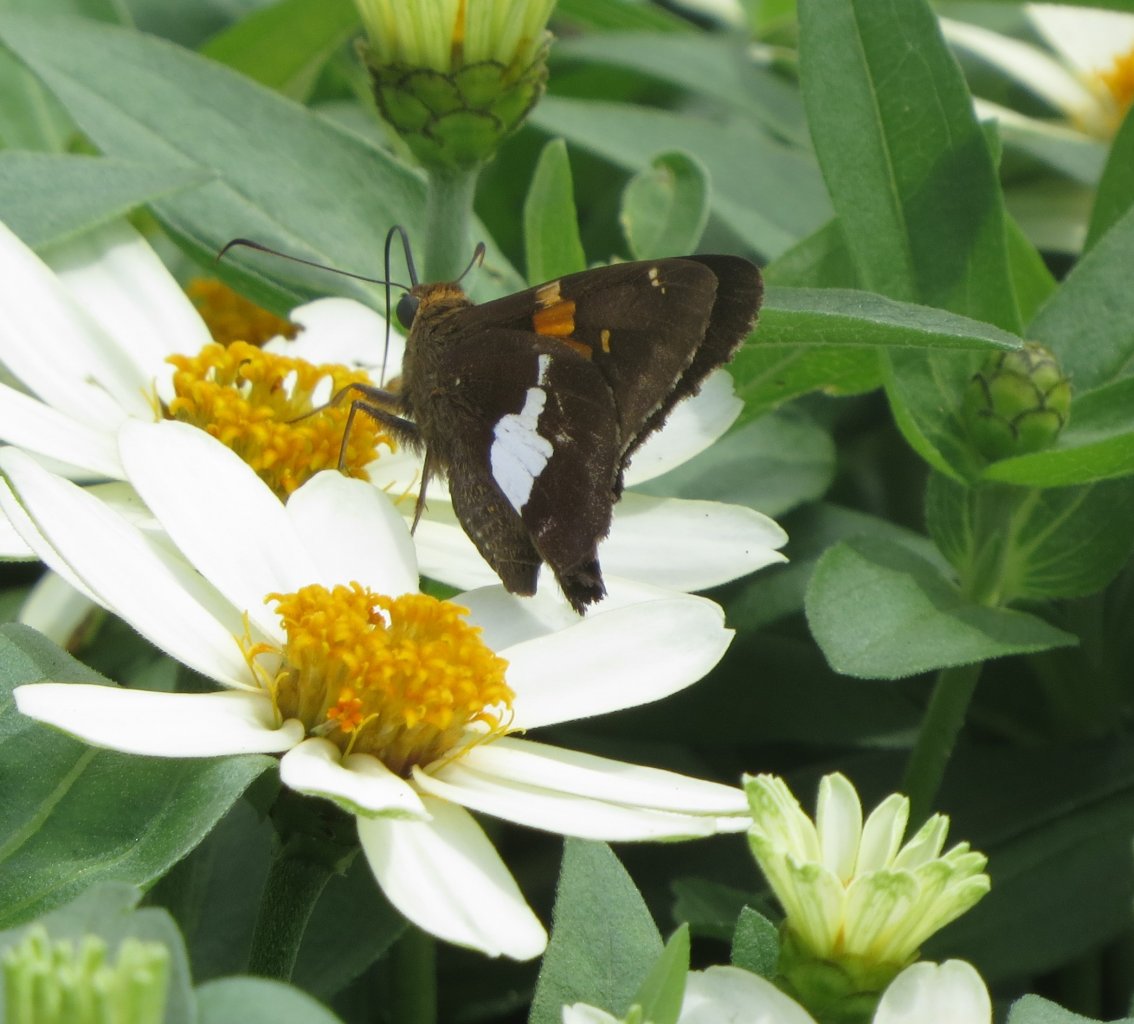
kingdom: Animalia
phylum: Arthropoda
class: Insecta
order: Lepidoptera
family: Hesperiidae
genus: Epargyreus
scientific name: Epargyreus clarus
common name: Silver-spotted Skipper
